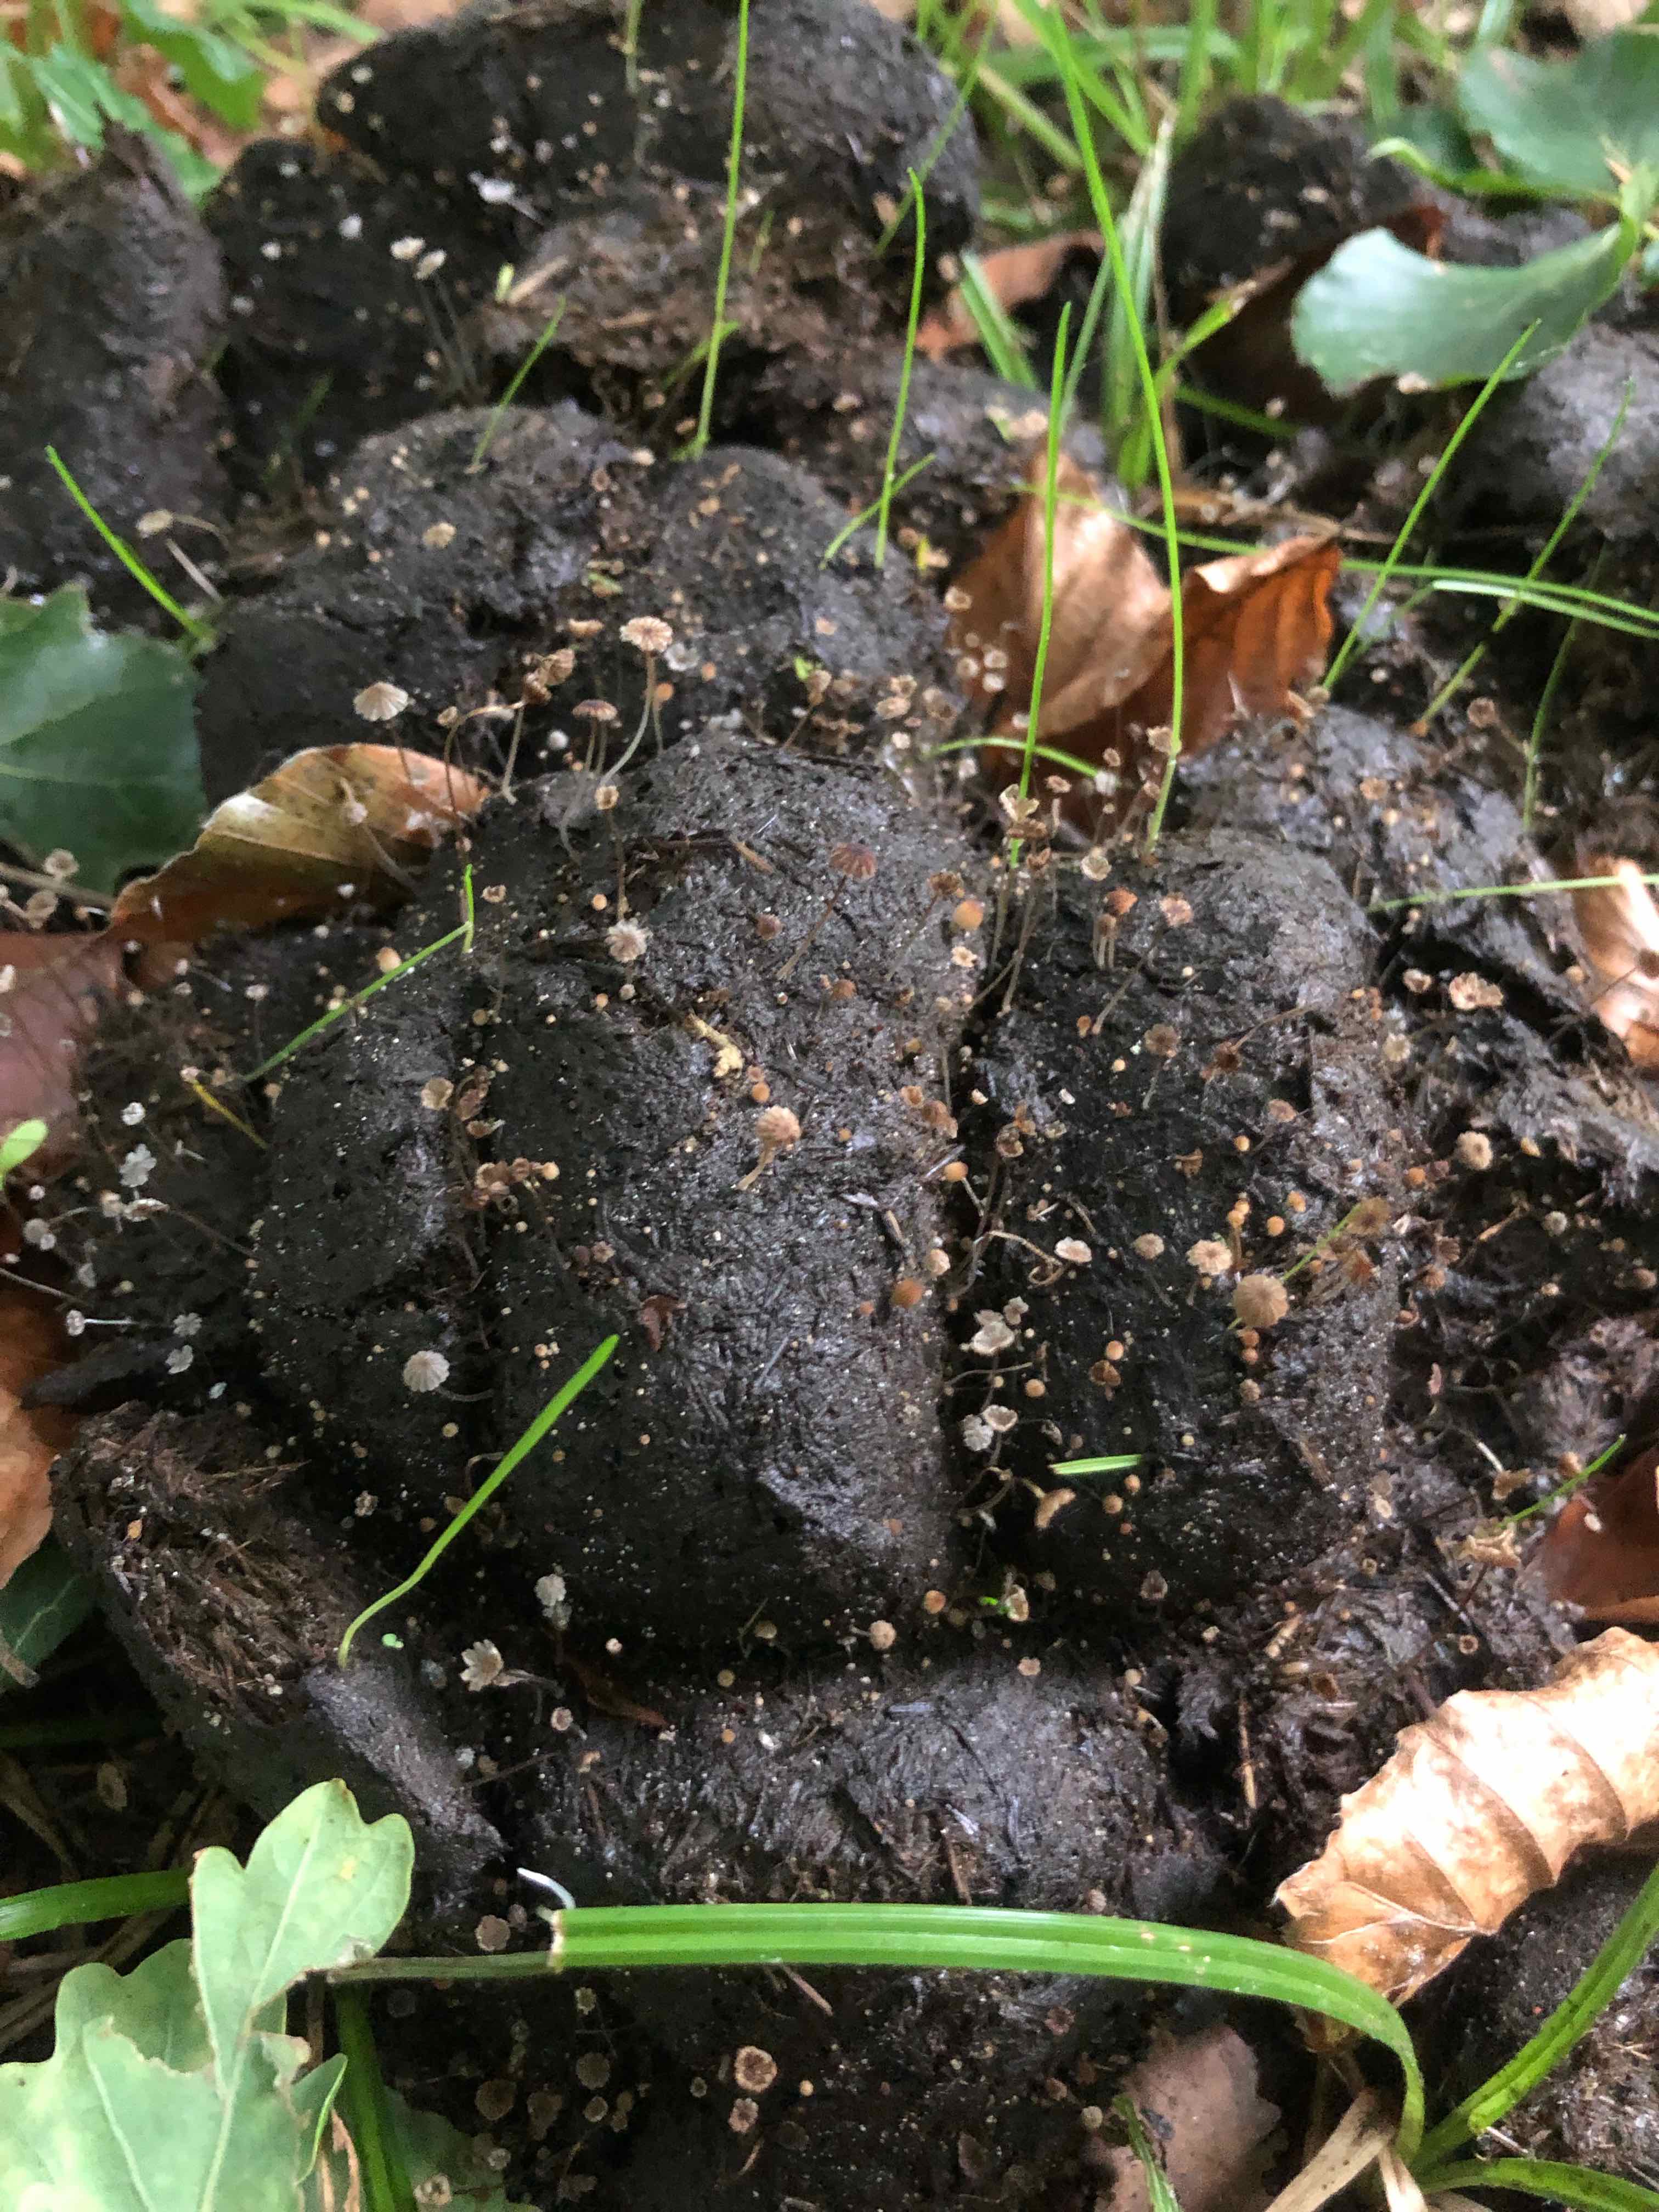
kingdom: Fungi
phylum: Basidiomycota
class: Agaricomycetes
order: Agaricales
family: Psathyrellaceae
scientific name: Psathyrellaceae
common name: mørkhatfamilien
